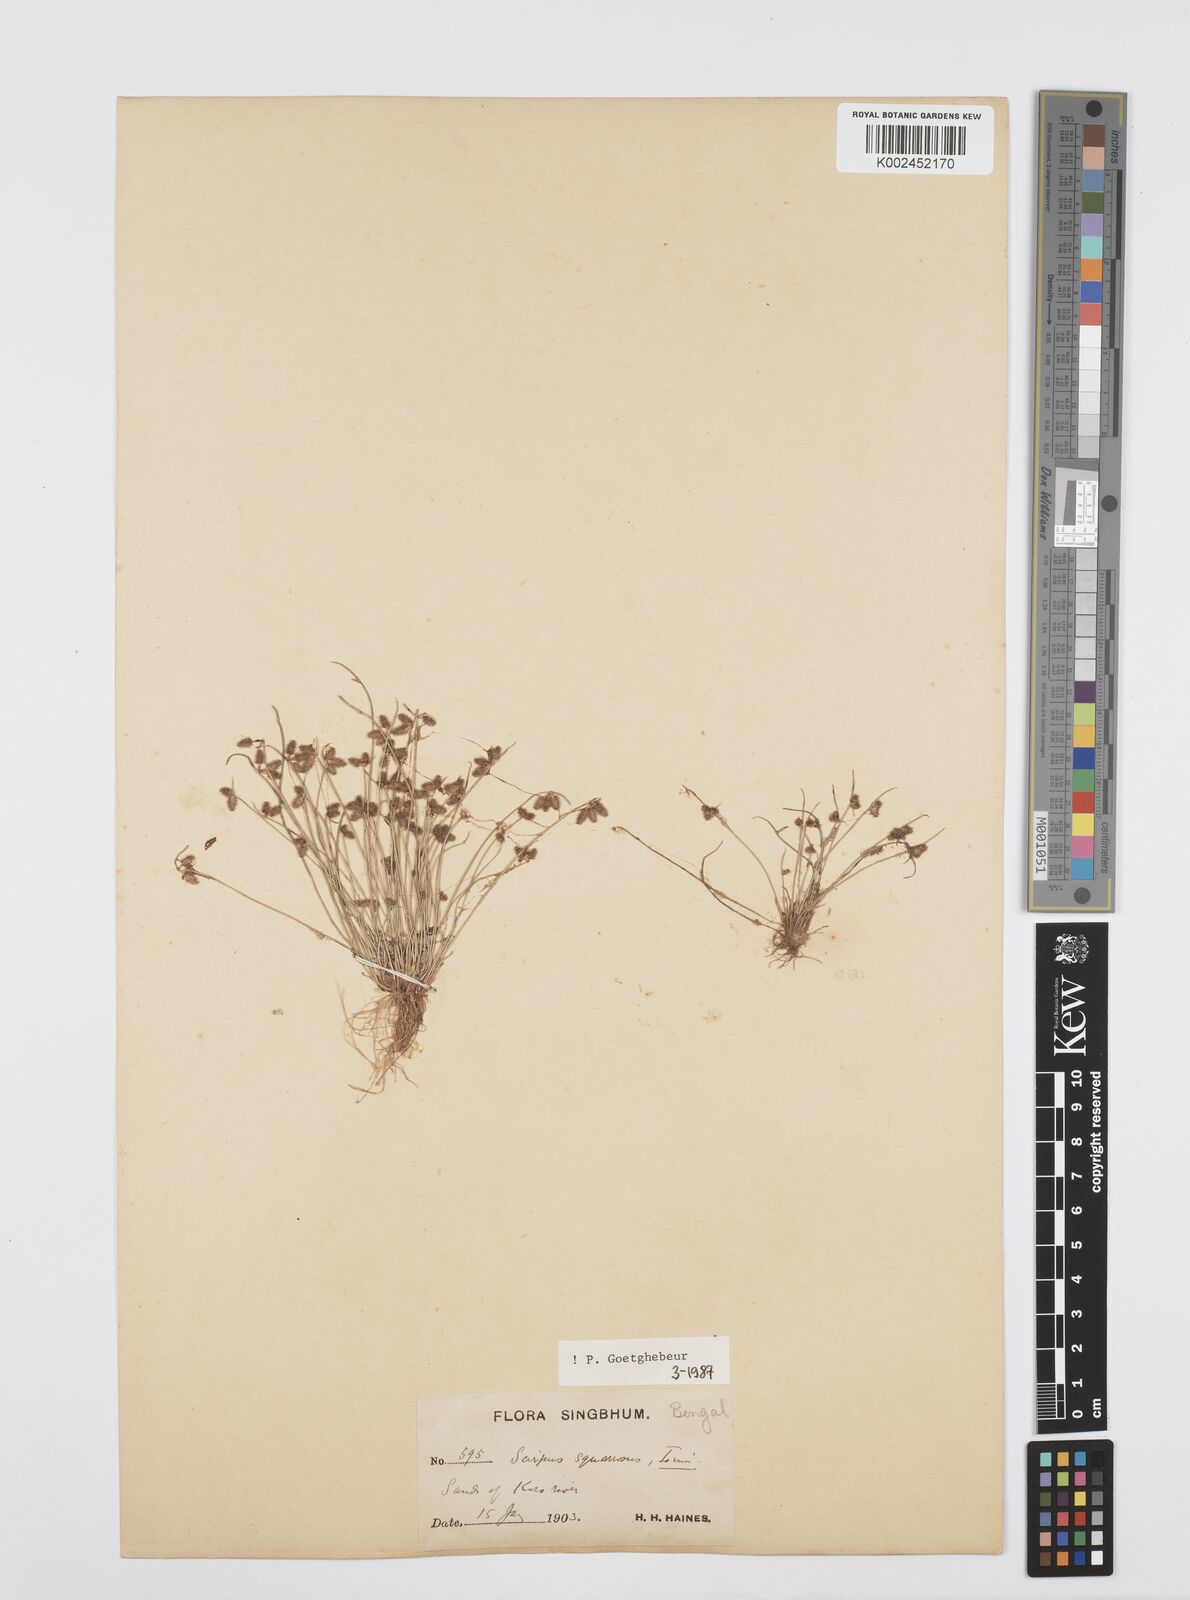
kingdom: Plantae
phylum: Tracheophyta
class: Liliopsida
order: Poales
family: Cyperaceae
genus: Cyperus
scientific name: Cyperus squarrosus
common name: Awned cyperus
